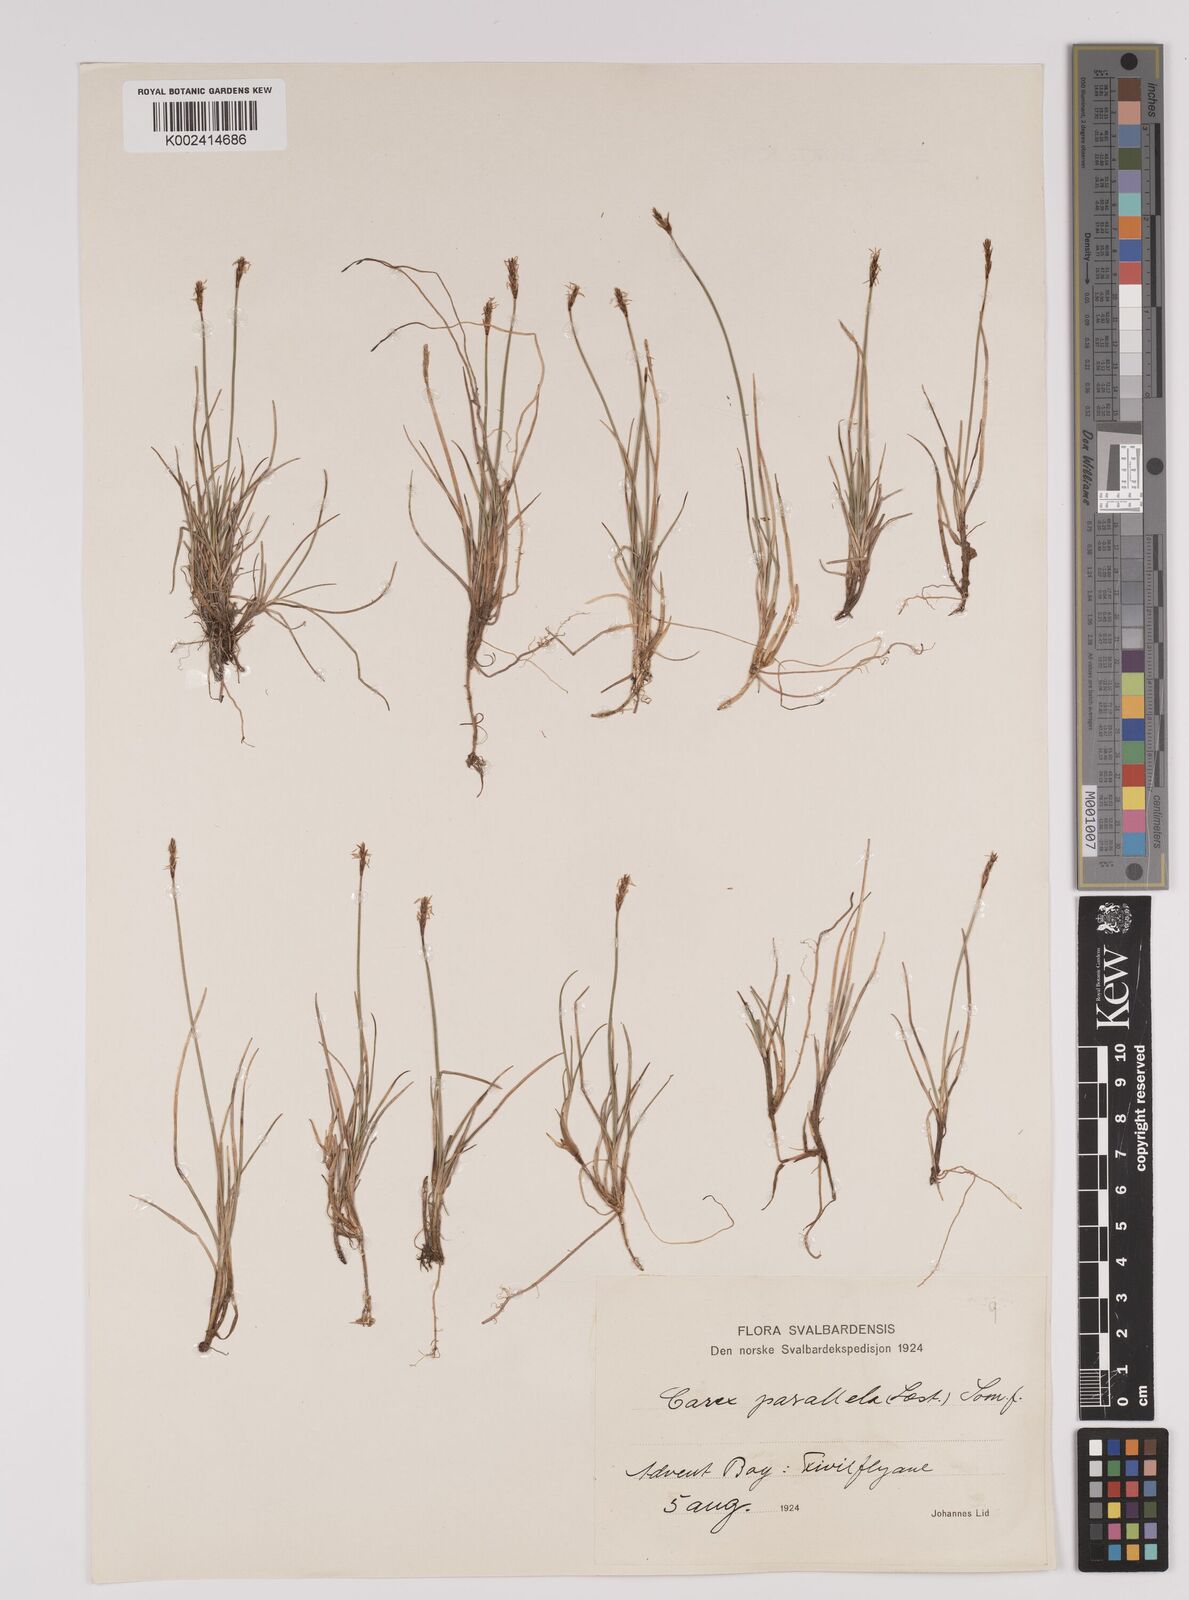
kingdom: Plantae
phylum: Tracheophyta
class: Liliopsida
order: Poales
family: Cyperaceae
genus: Carex
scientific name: Carex parallela
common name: Parallel sedge
